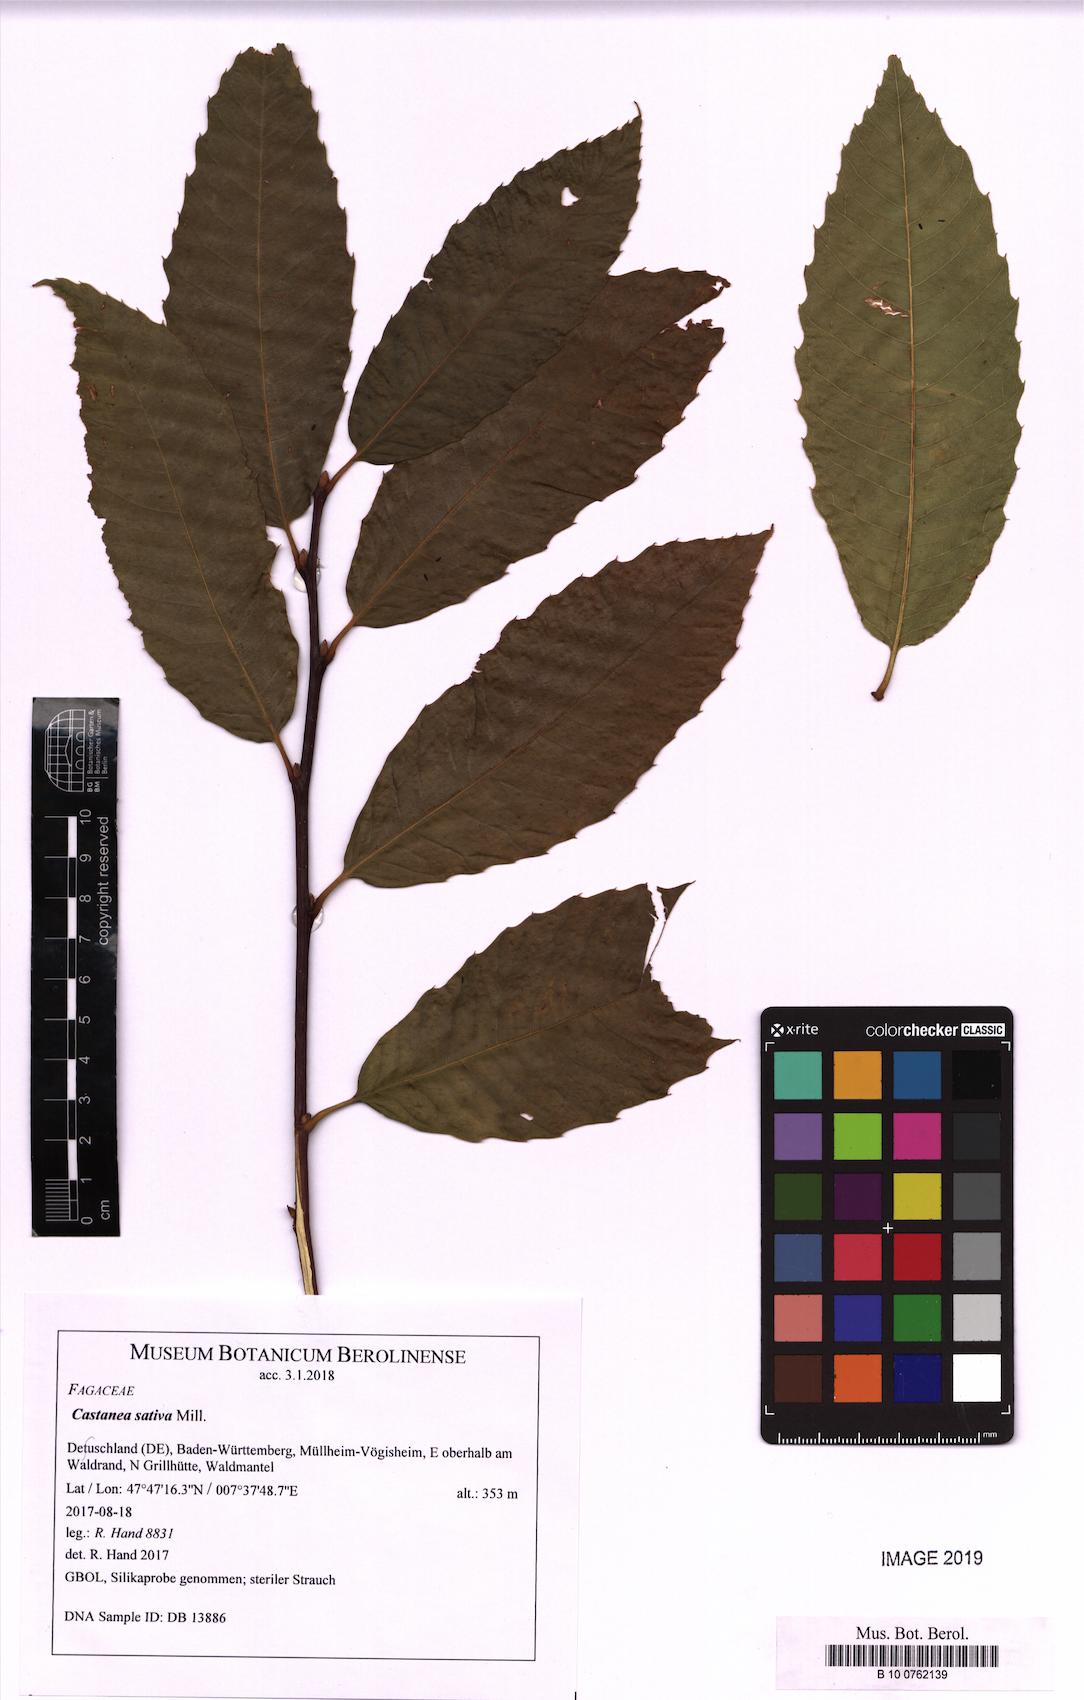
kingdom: Plantae
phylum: Tracheophyta
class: Magnoliopsida
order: Fagales
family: Fagaceae
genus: Castanea
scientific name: Castanea sativa
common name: Sweet chestnut
